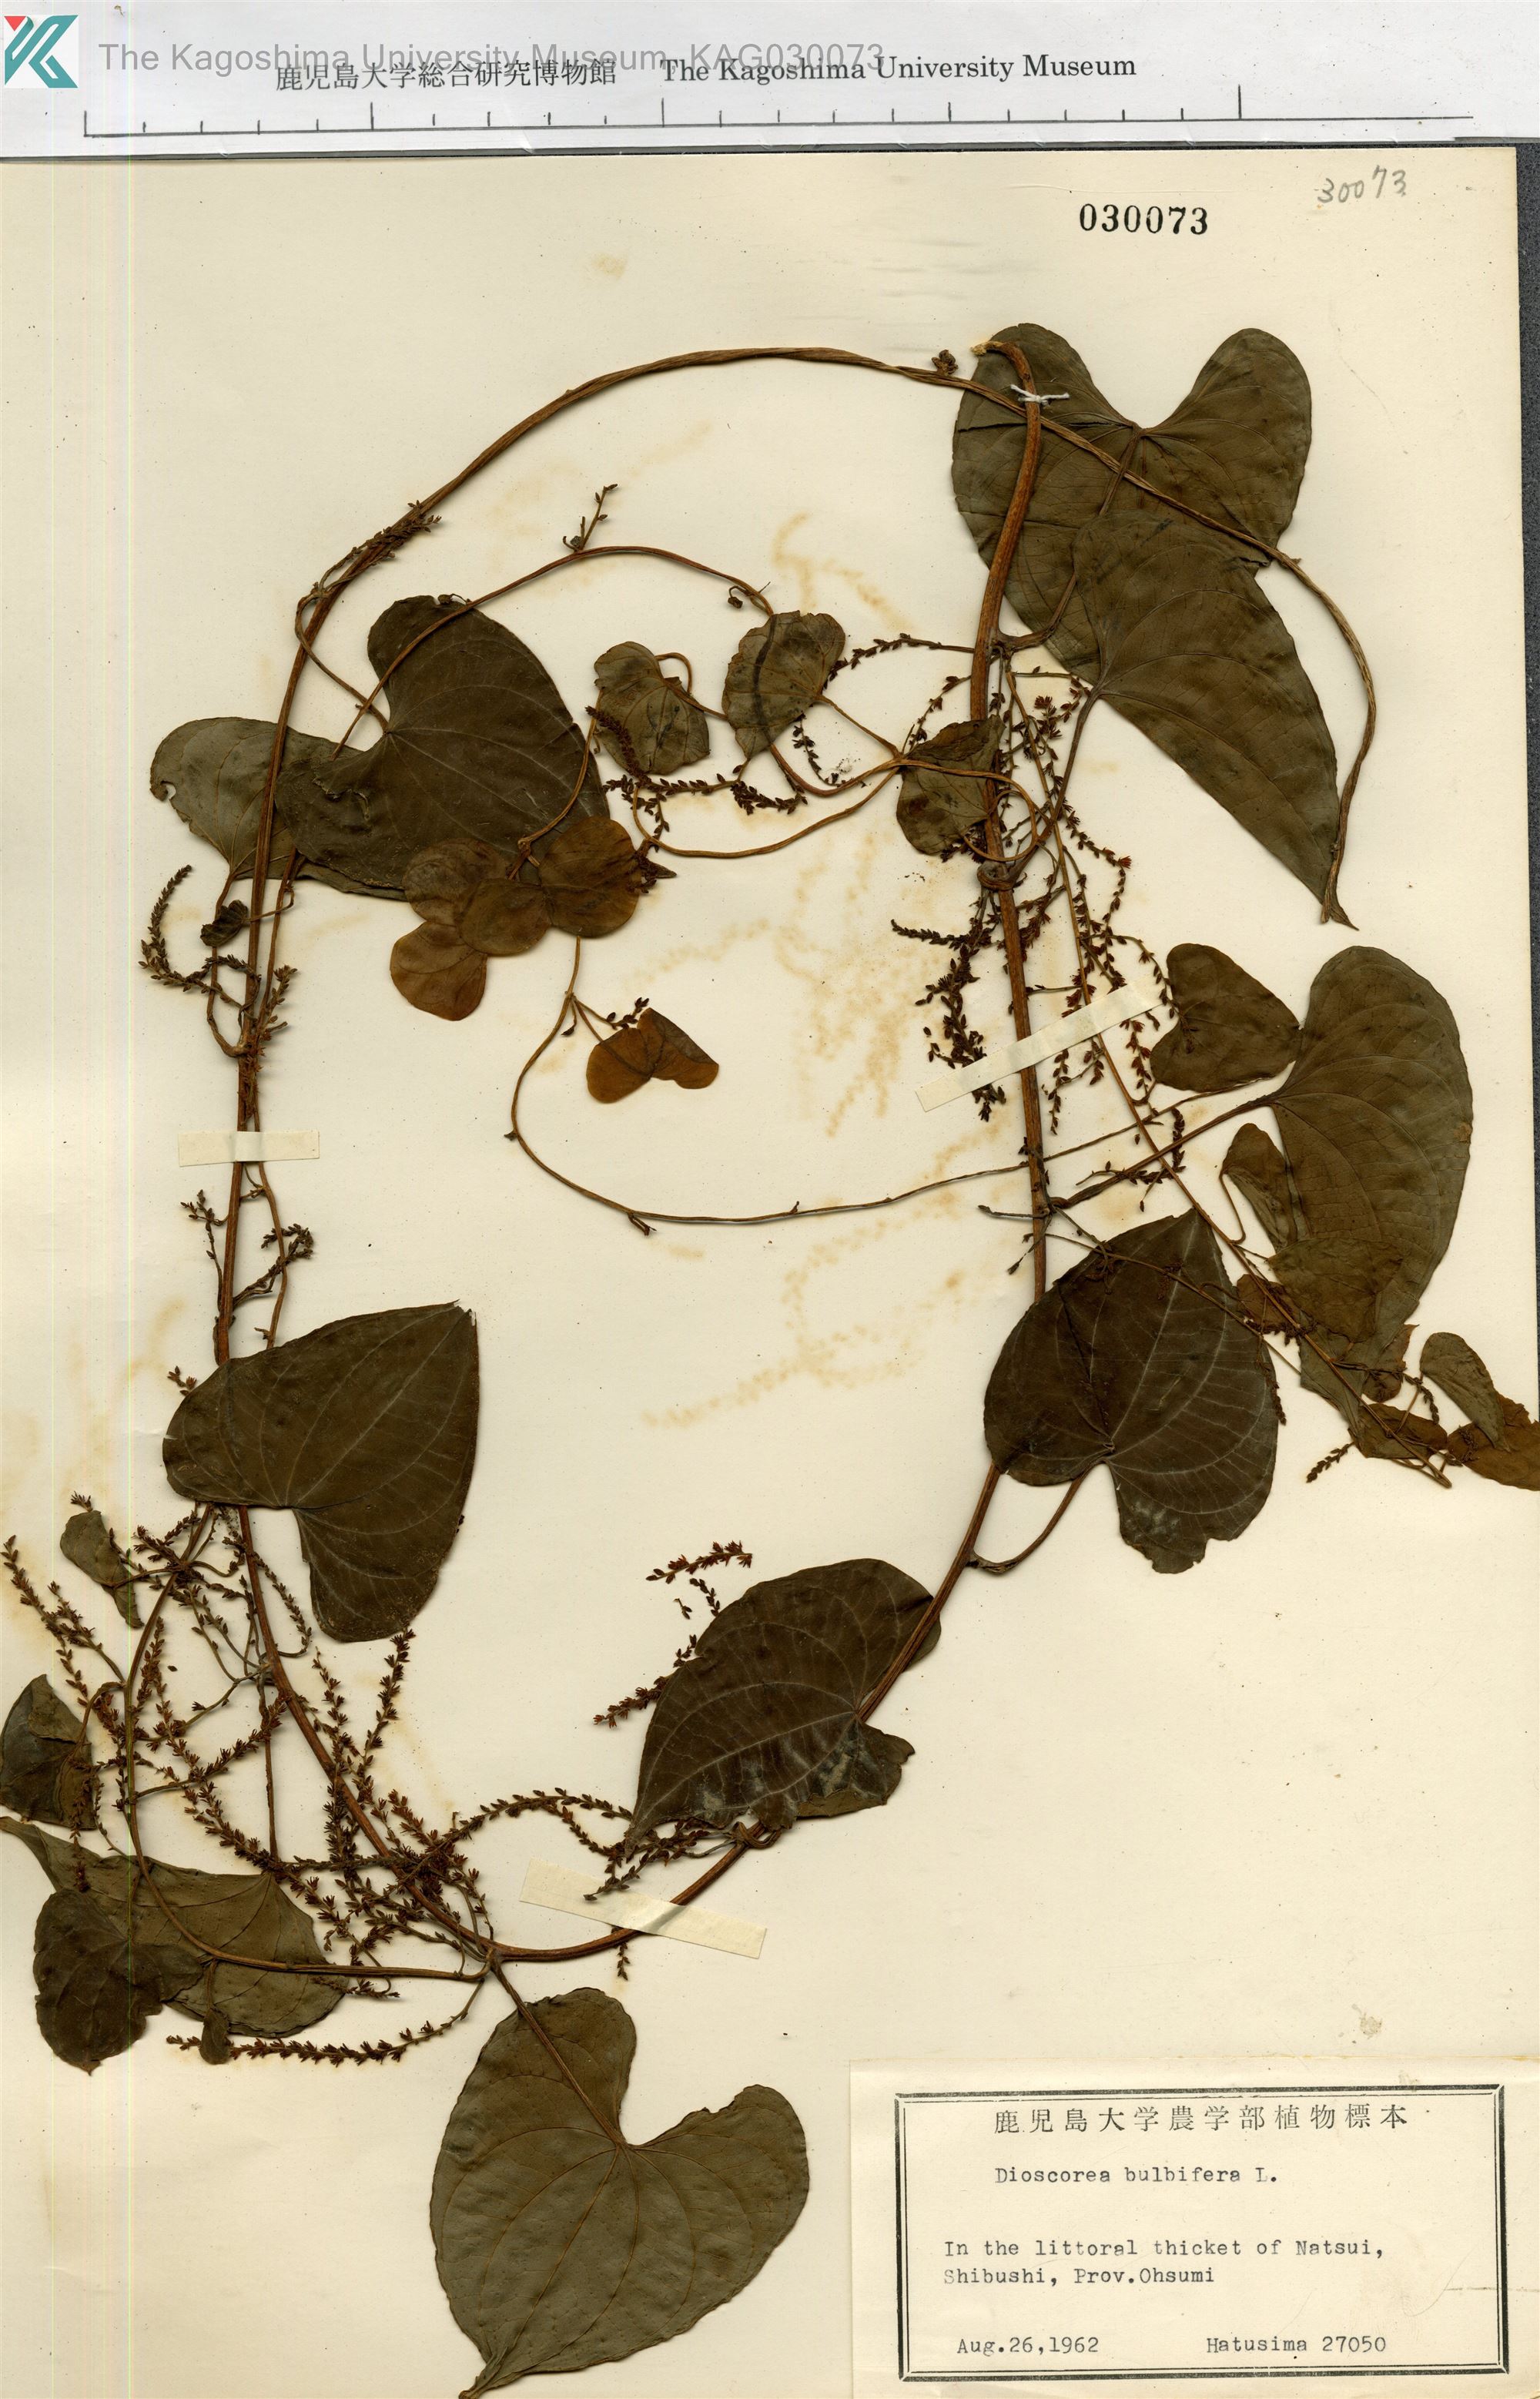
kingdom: Plantae
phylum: Tracheophyta
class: Liliopsida
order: Dioscoreales
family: Dioscoreaceae
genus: Dioscorea
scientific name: Dioscorea bulbifera
